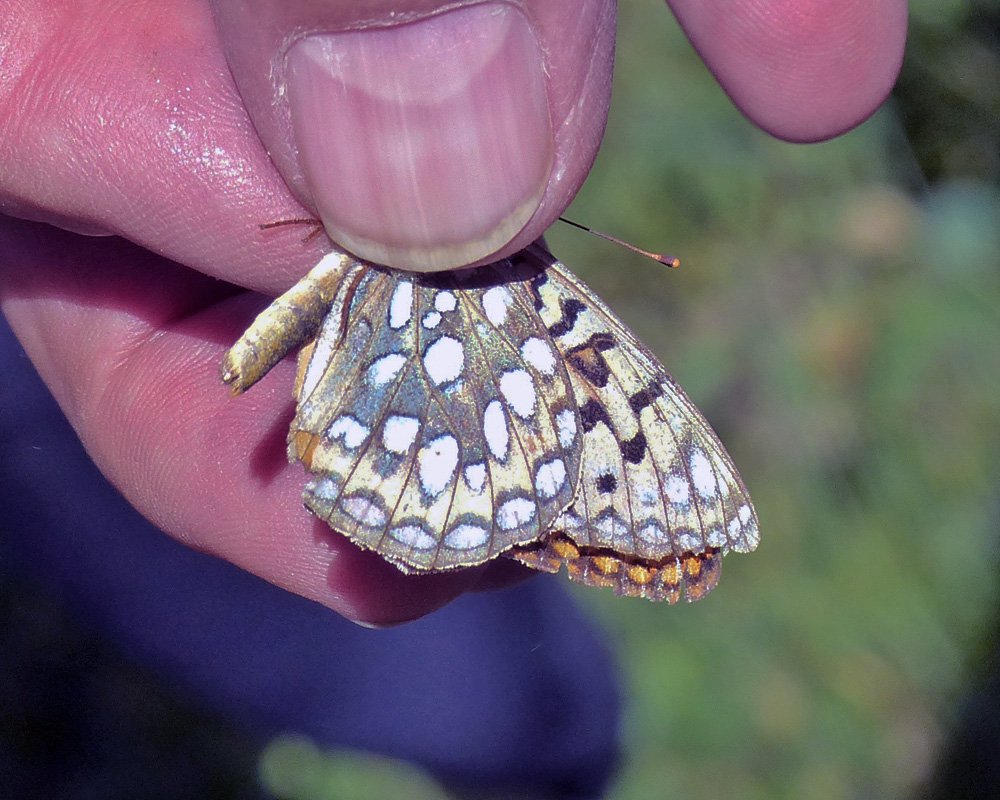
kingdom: Animalia
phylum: Arthropoda
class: Insecta
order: Lepidoptera
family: Nymphalidae
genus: Speyeria
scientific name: Speyeria coronis
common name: Coronis Fritillary
